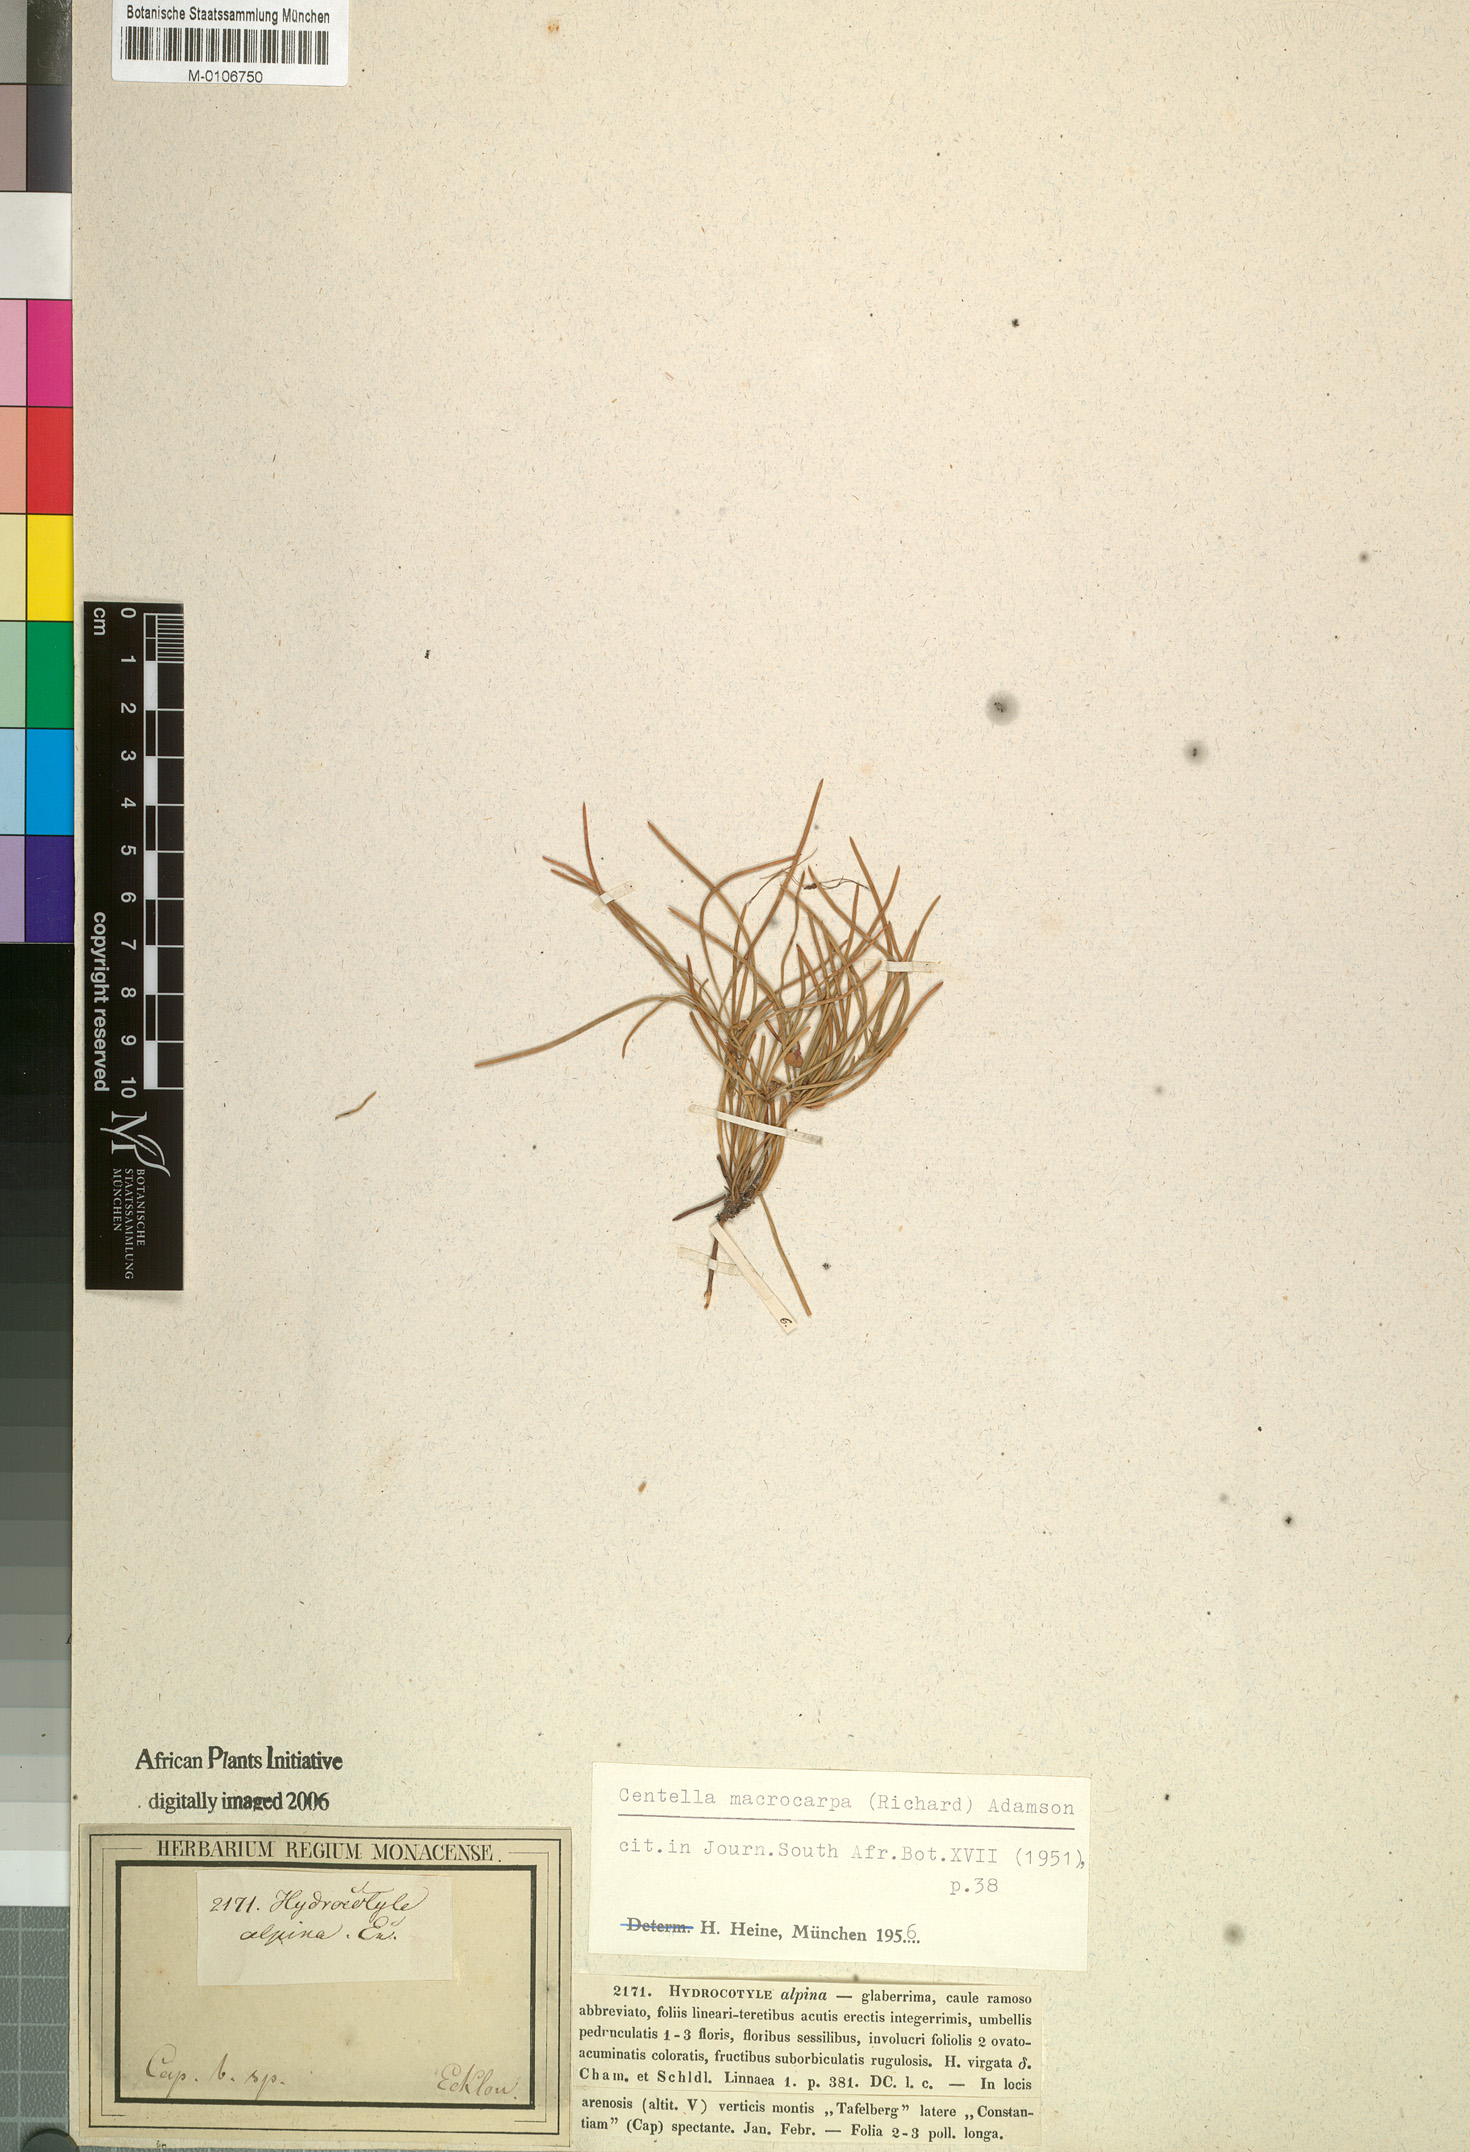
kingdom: Plantae
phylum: Tracheophyta
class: Magnoliopsida
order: Apiales
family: Apiaceae
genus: Centella
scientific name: Centella macrocarpa
